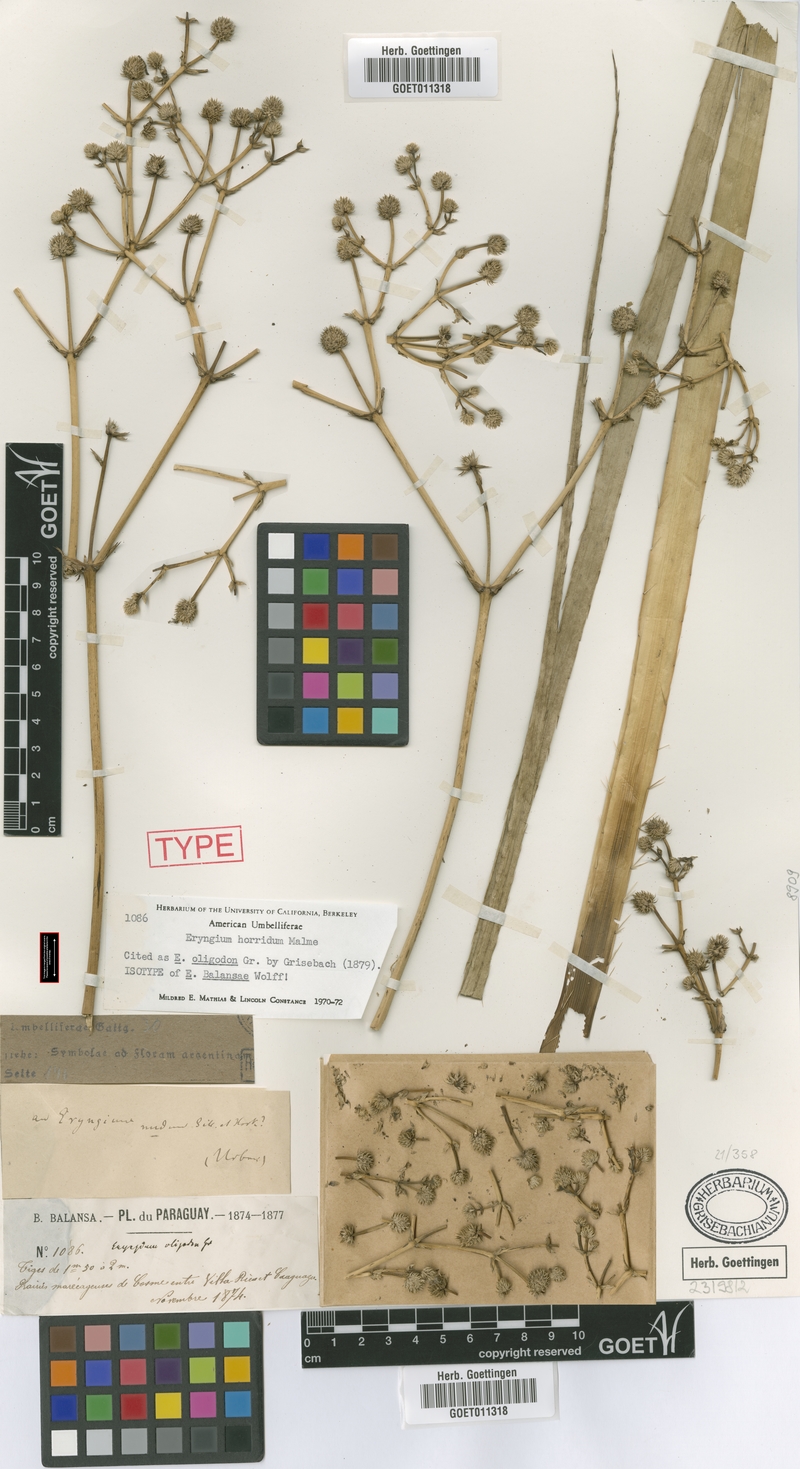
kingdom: Plantae
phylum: Tracheophyta
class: Magnoliopsida
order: Apiales
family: Apiaceae
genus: Eryngium
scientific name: Eryngium horridum
